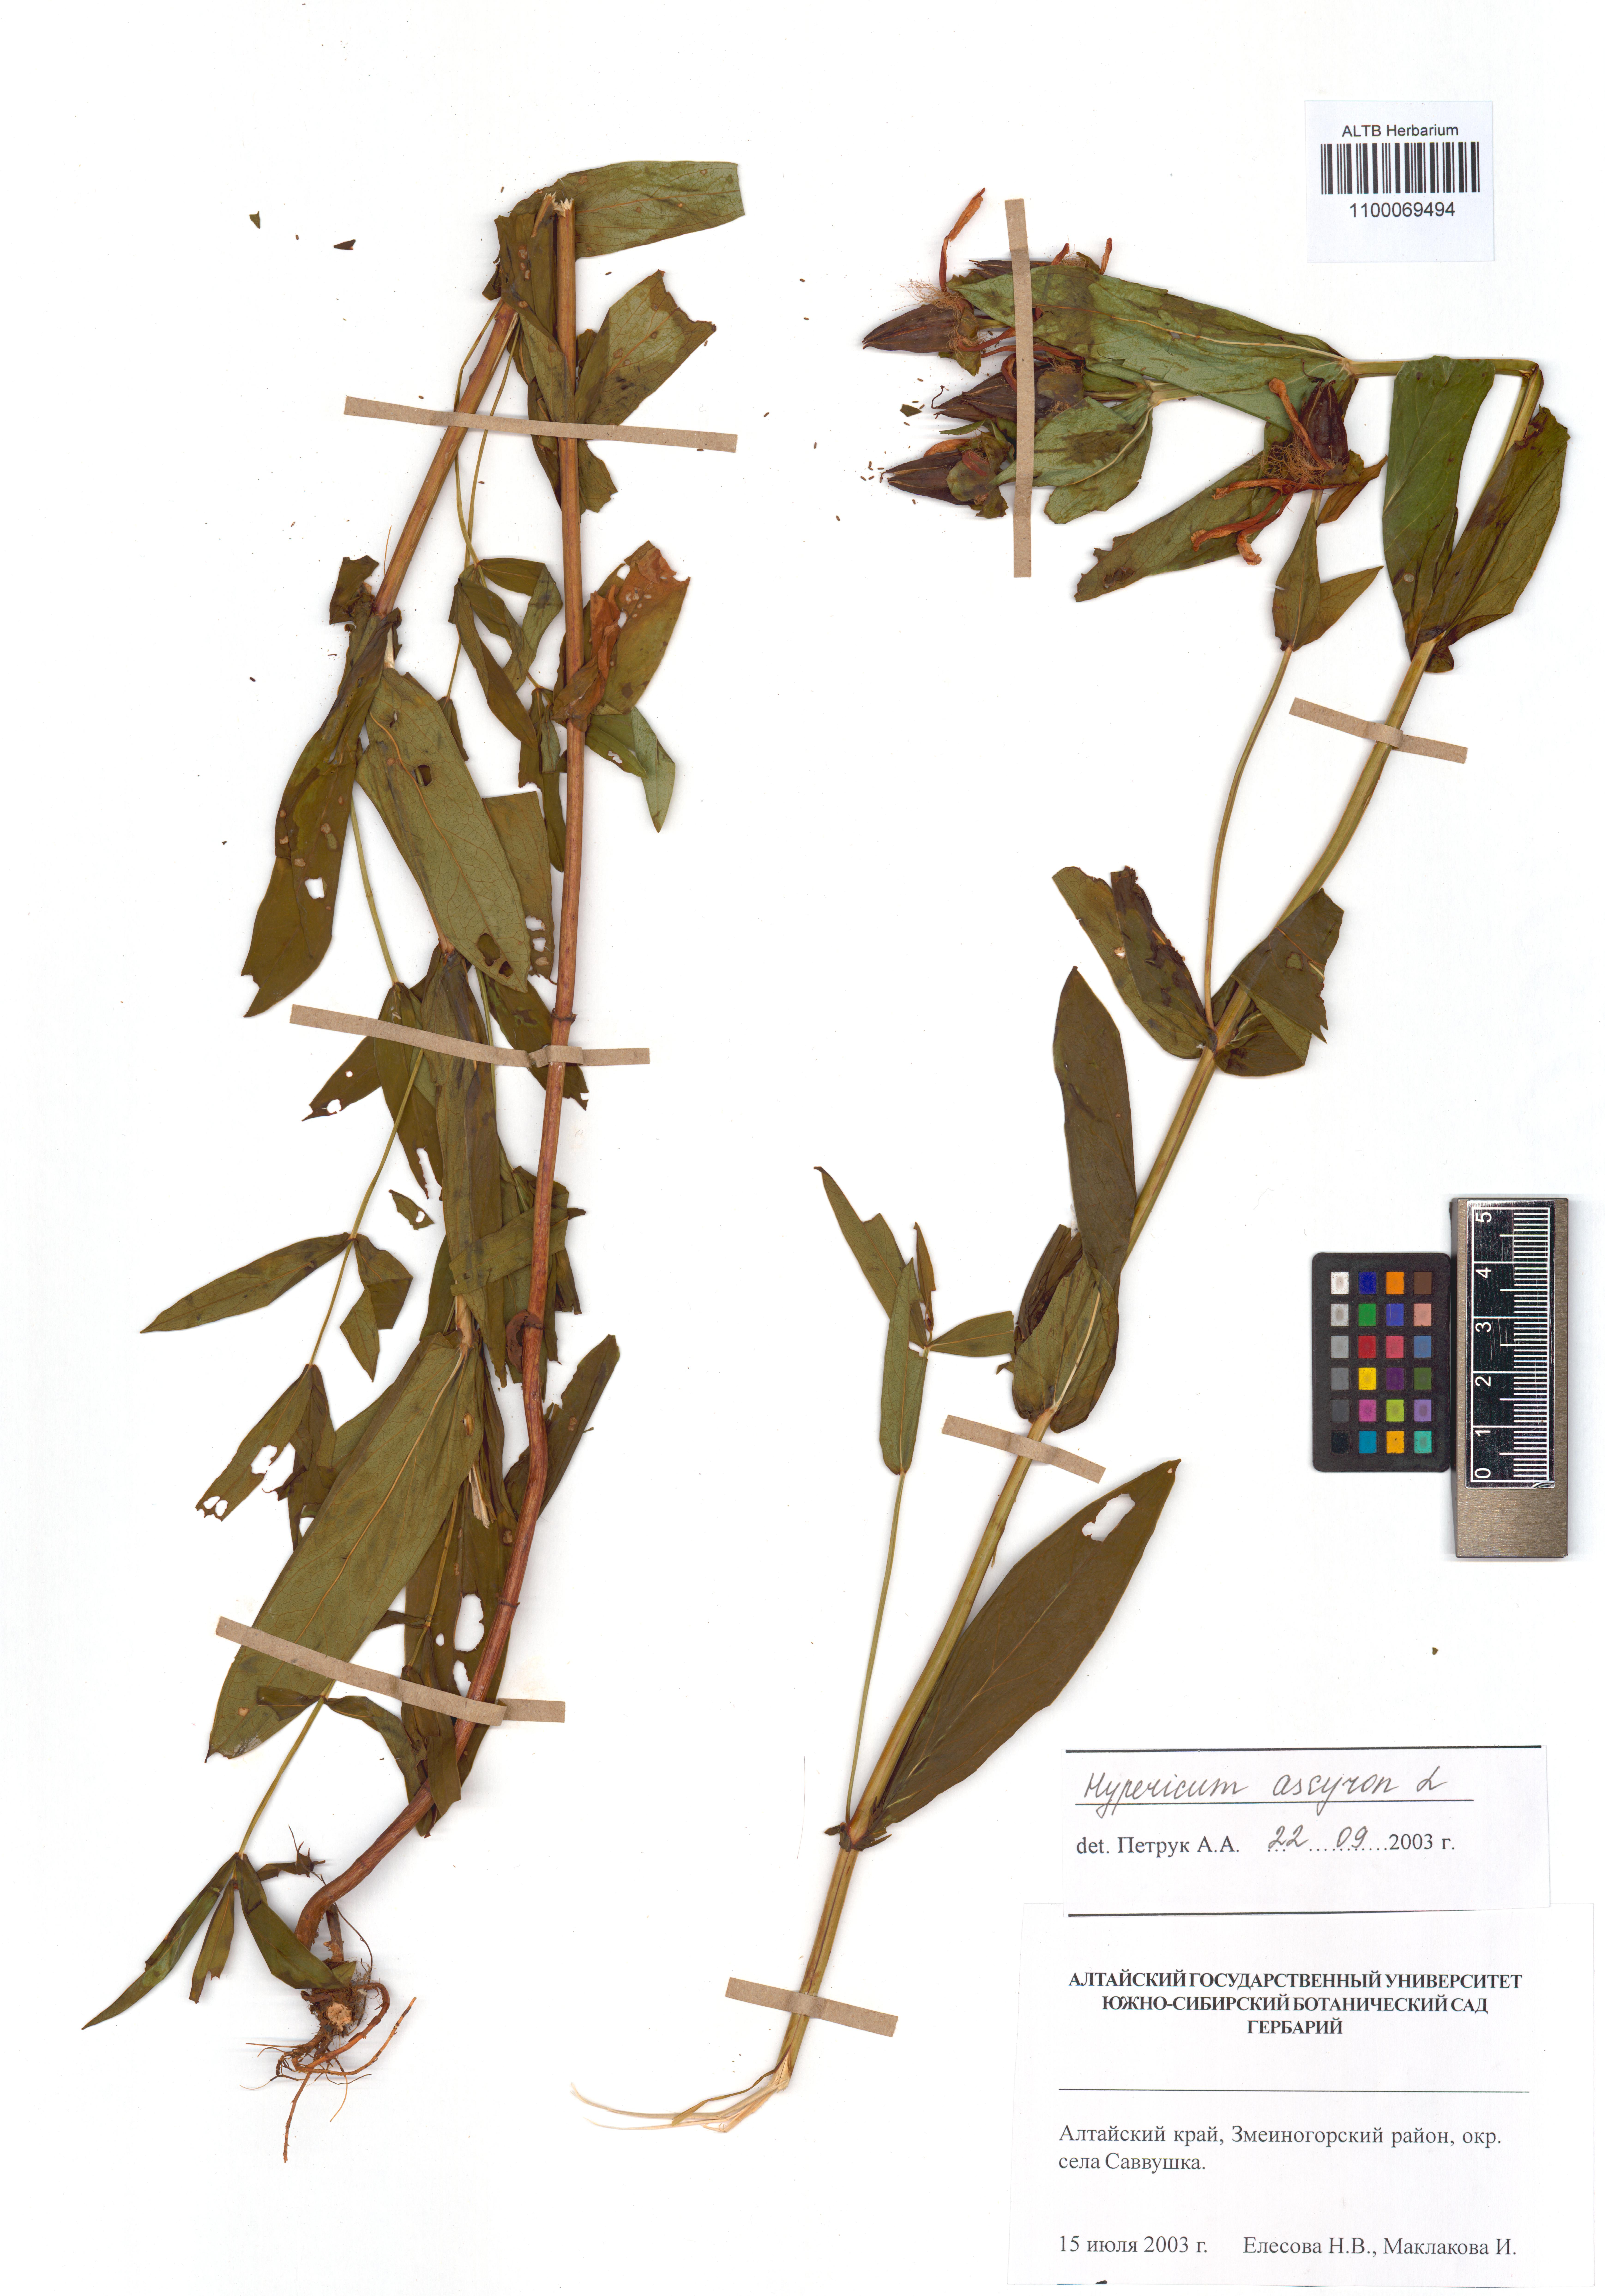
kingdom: Plantae
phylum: Tracheophyta
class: Magnoliopsida
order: Malpighiales
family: Hypericaceae
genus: Hypericum
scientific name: Hypericum ascyron
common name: Giant st. john's-wort
